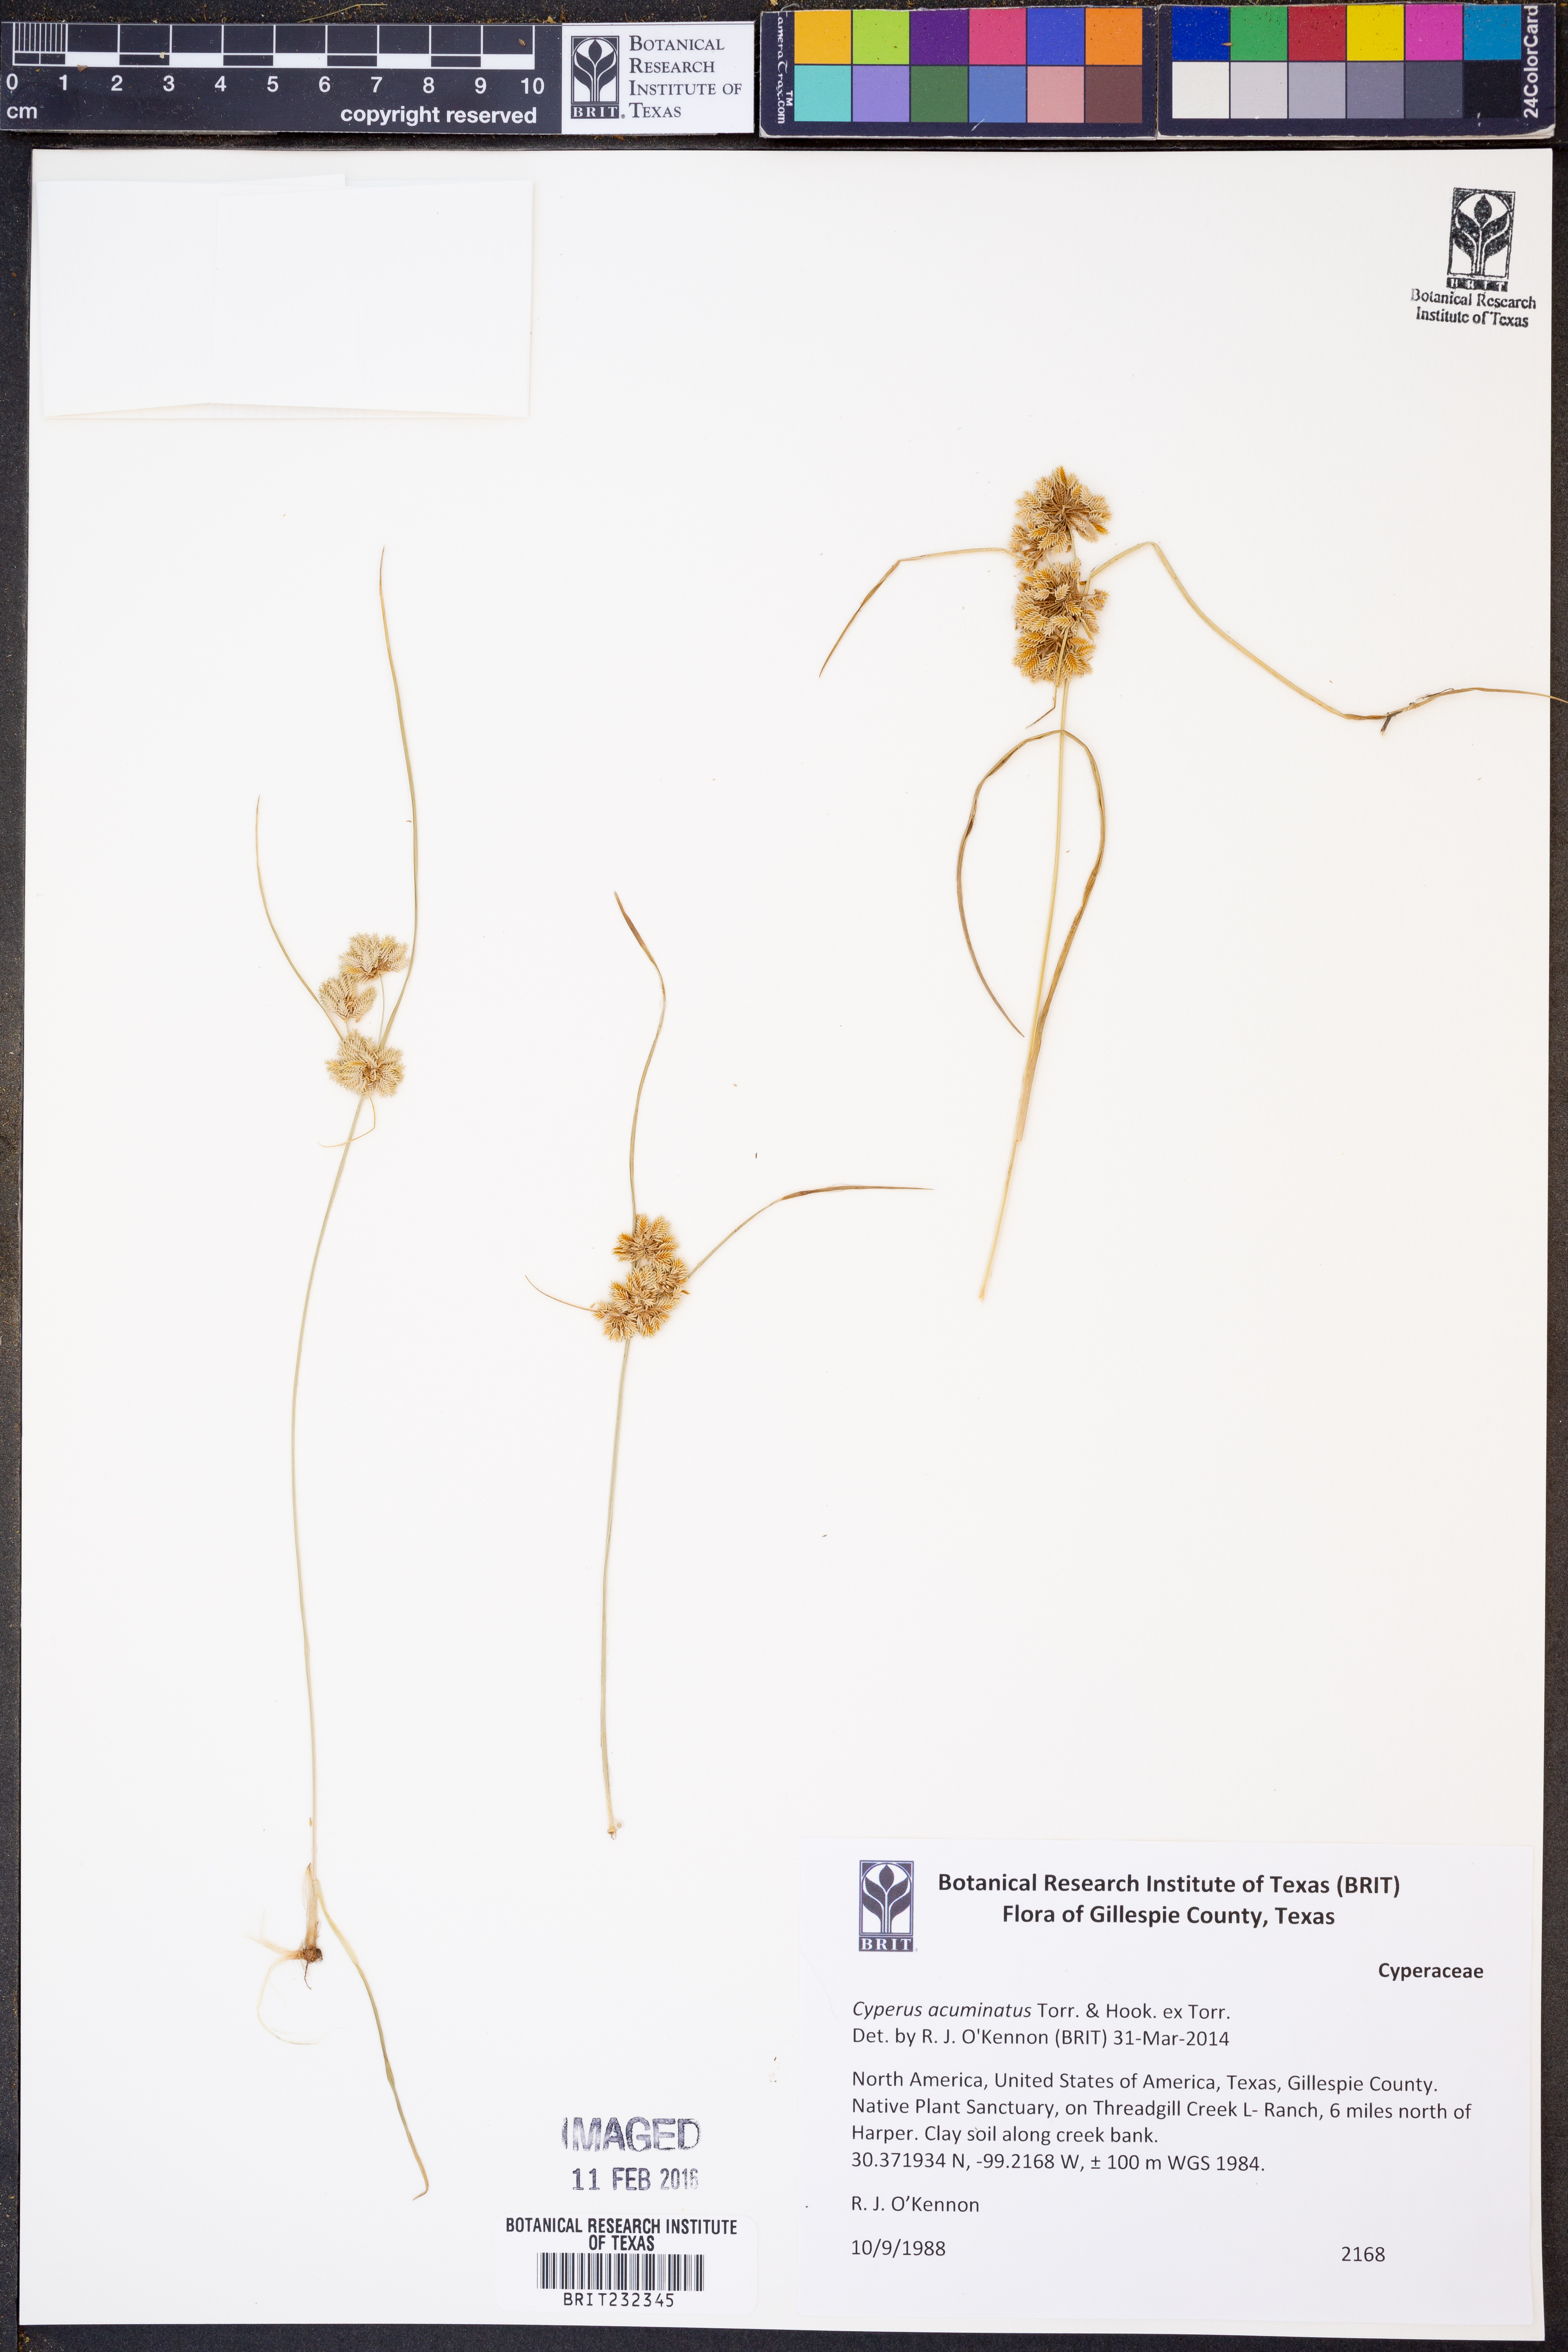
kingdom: Plantae
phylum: Tracheophyta
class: Liliopsida
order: Poales
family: Cyperaceae
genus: Cyperus
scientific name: Cyperus acuminatus
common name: Short-pointed cyperus
